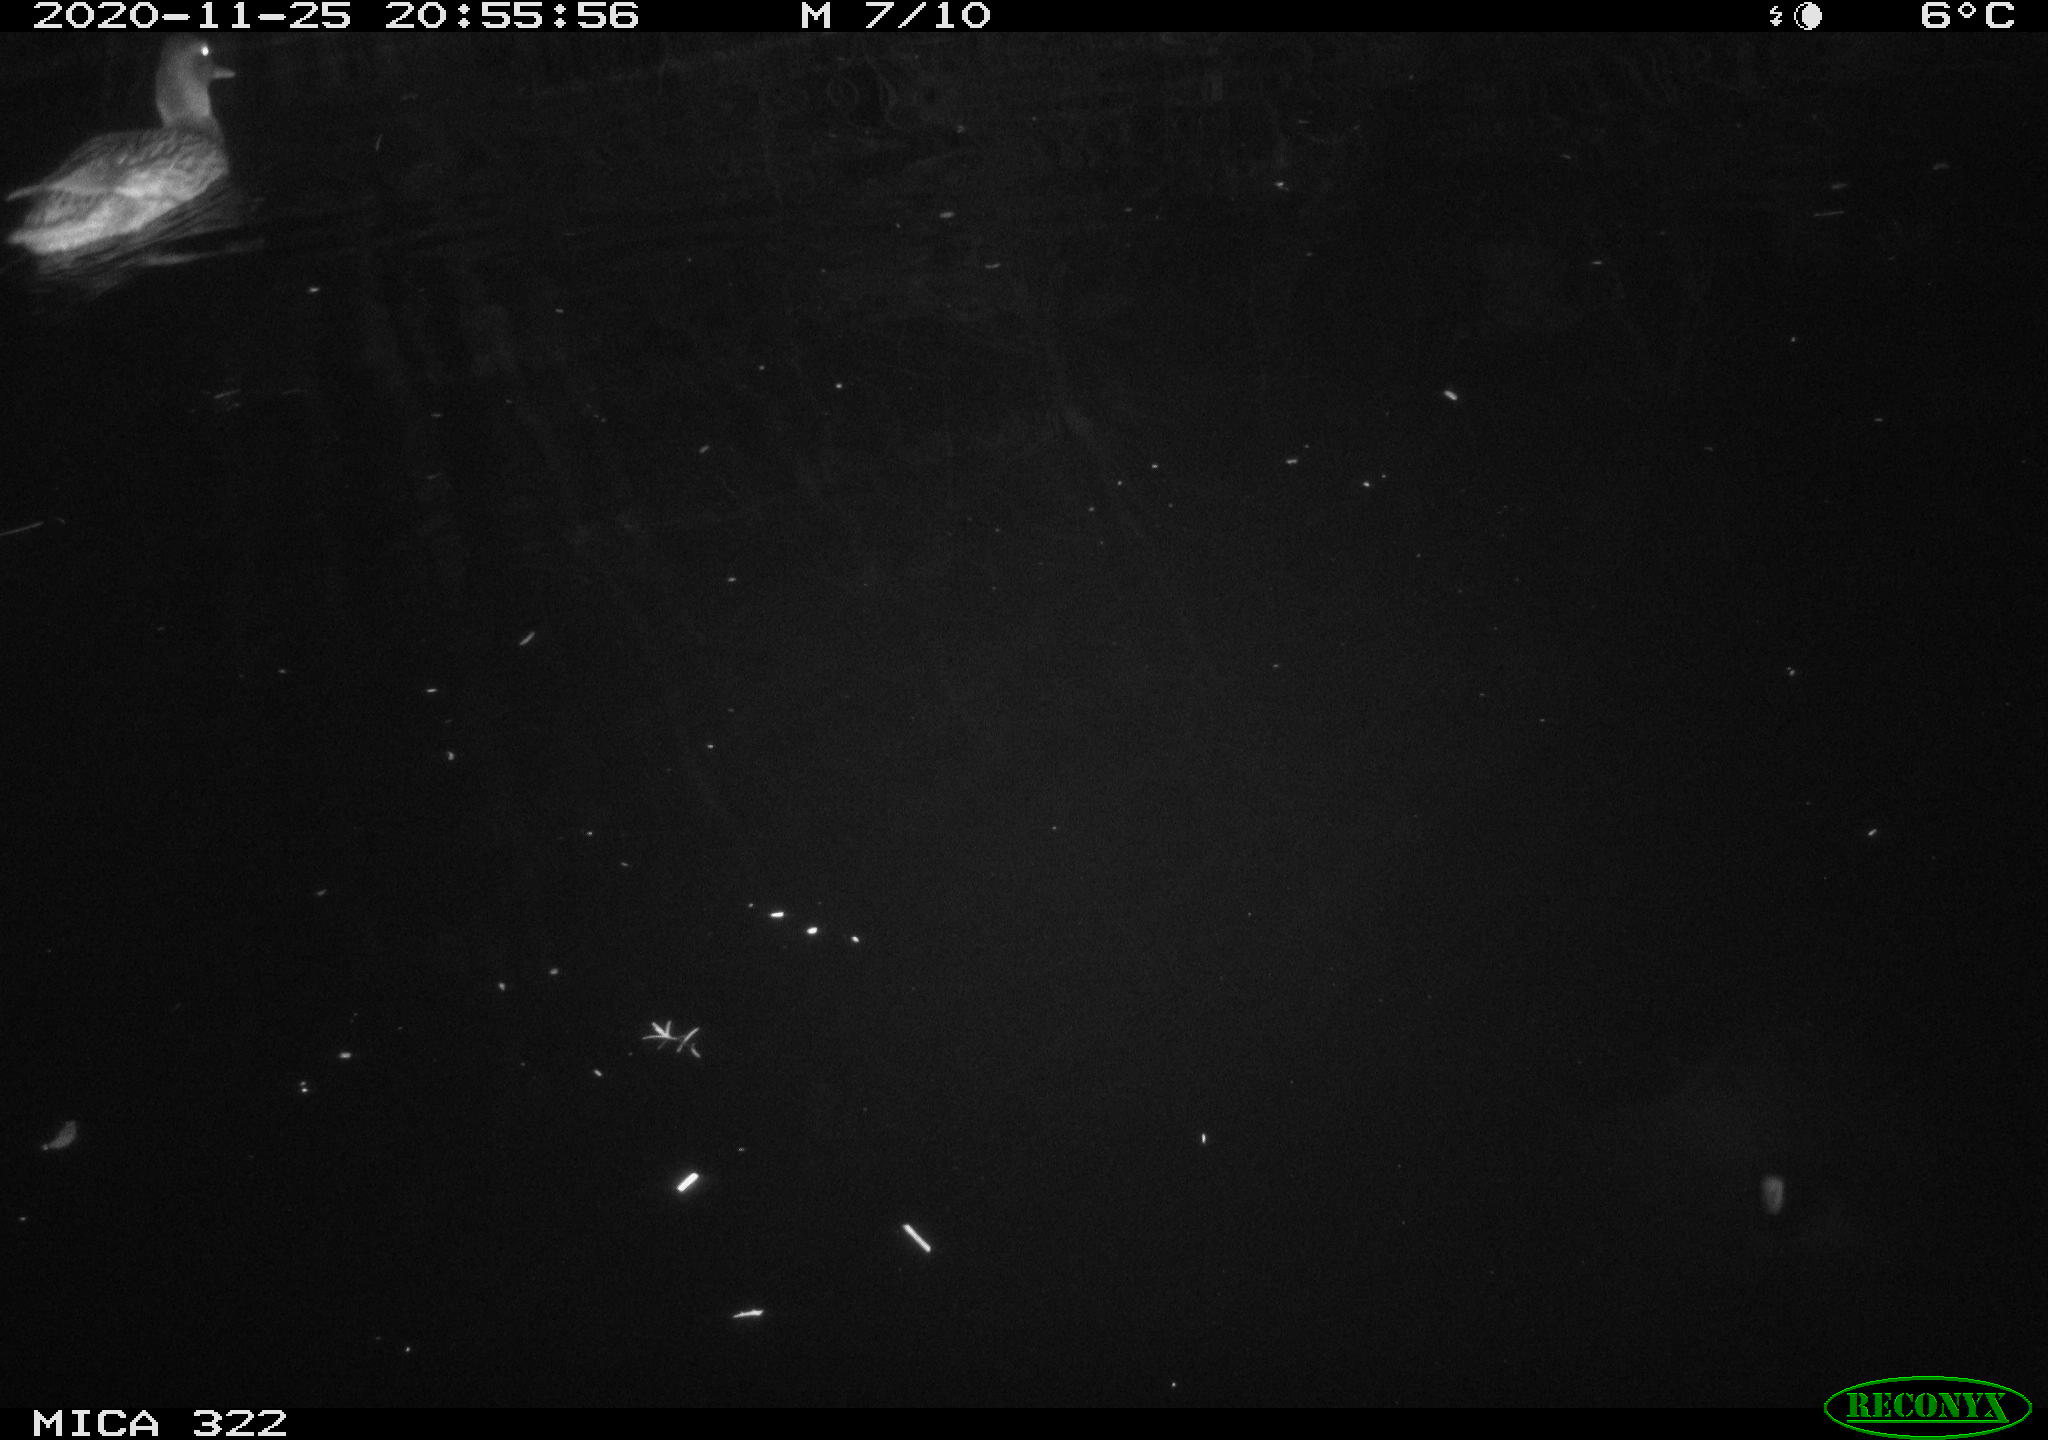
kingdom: Animalia
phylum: Chordata
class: Aves
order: Anseriformes
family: Anatidae
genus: Anas
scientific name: Anas platyrhynchos
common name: Mallard
